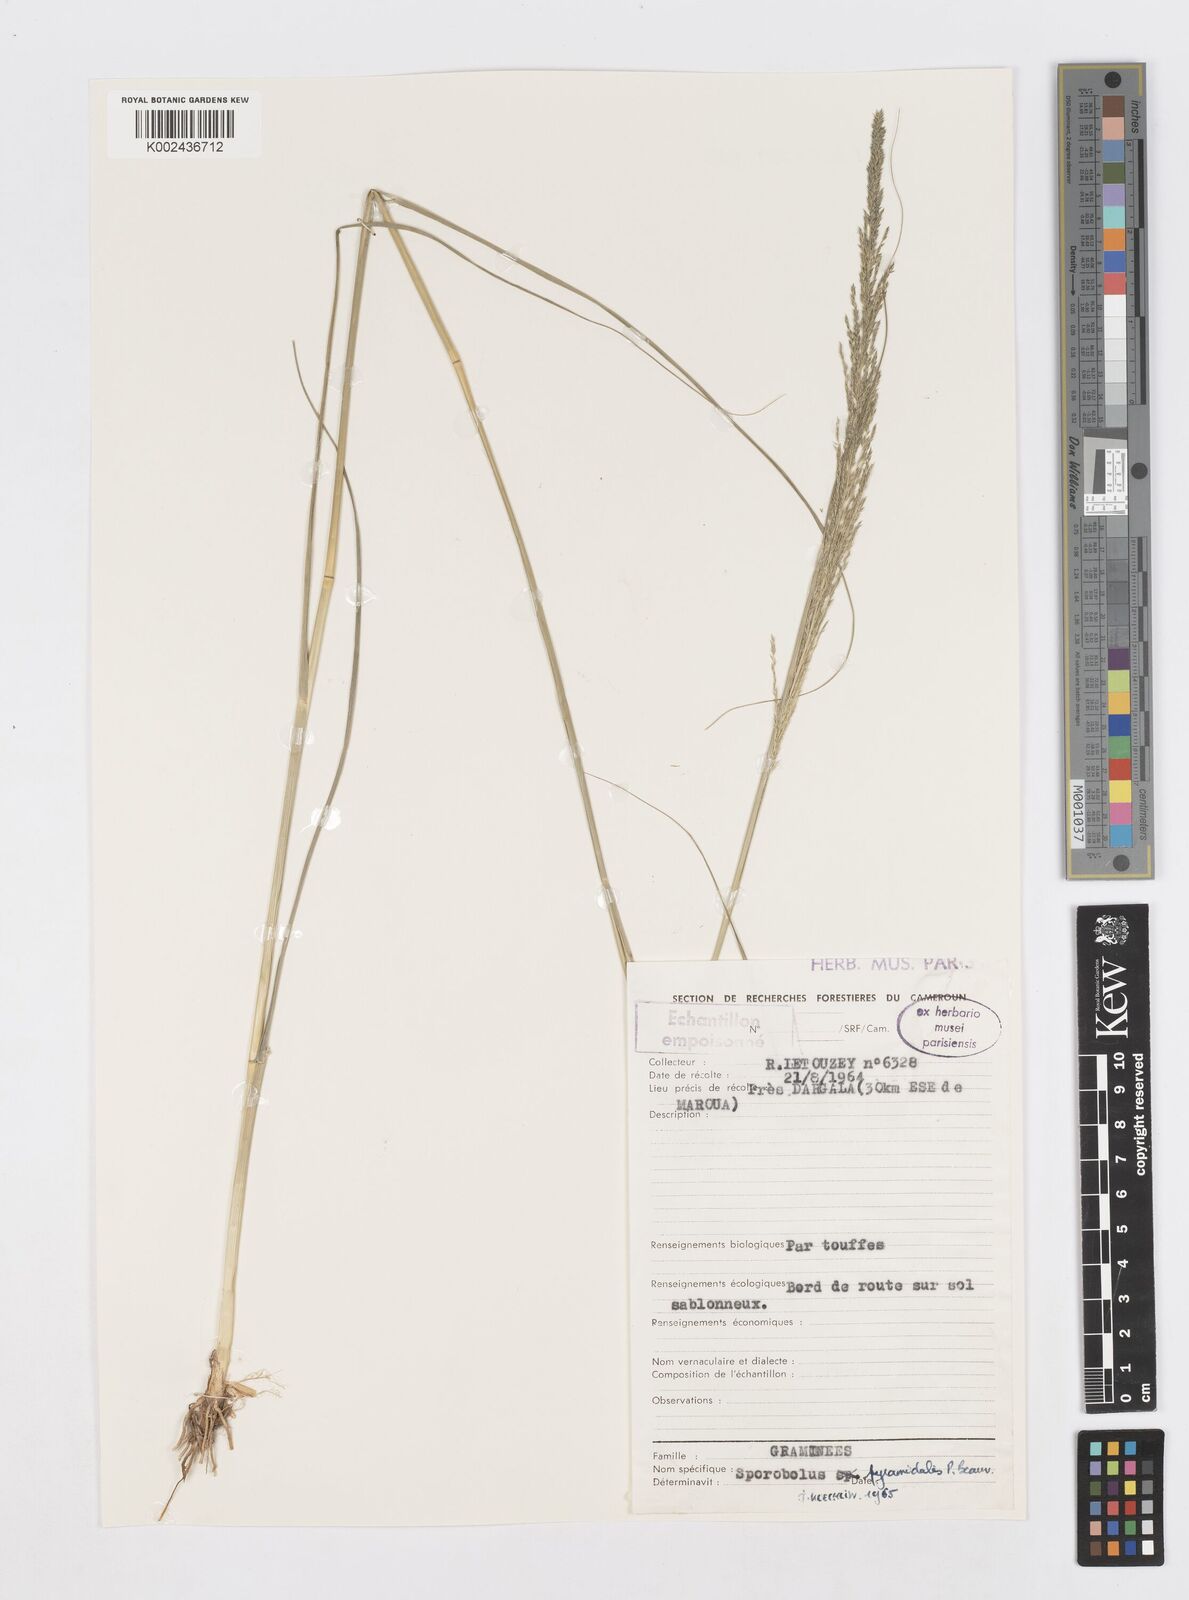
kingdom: Plantae
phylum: Tracheophyta
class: Liliopsida
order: Poales
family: Poaceae
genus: Sporobolus
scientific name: Sporobolus pyramidalis
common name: West indian dropseed
